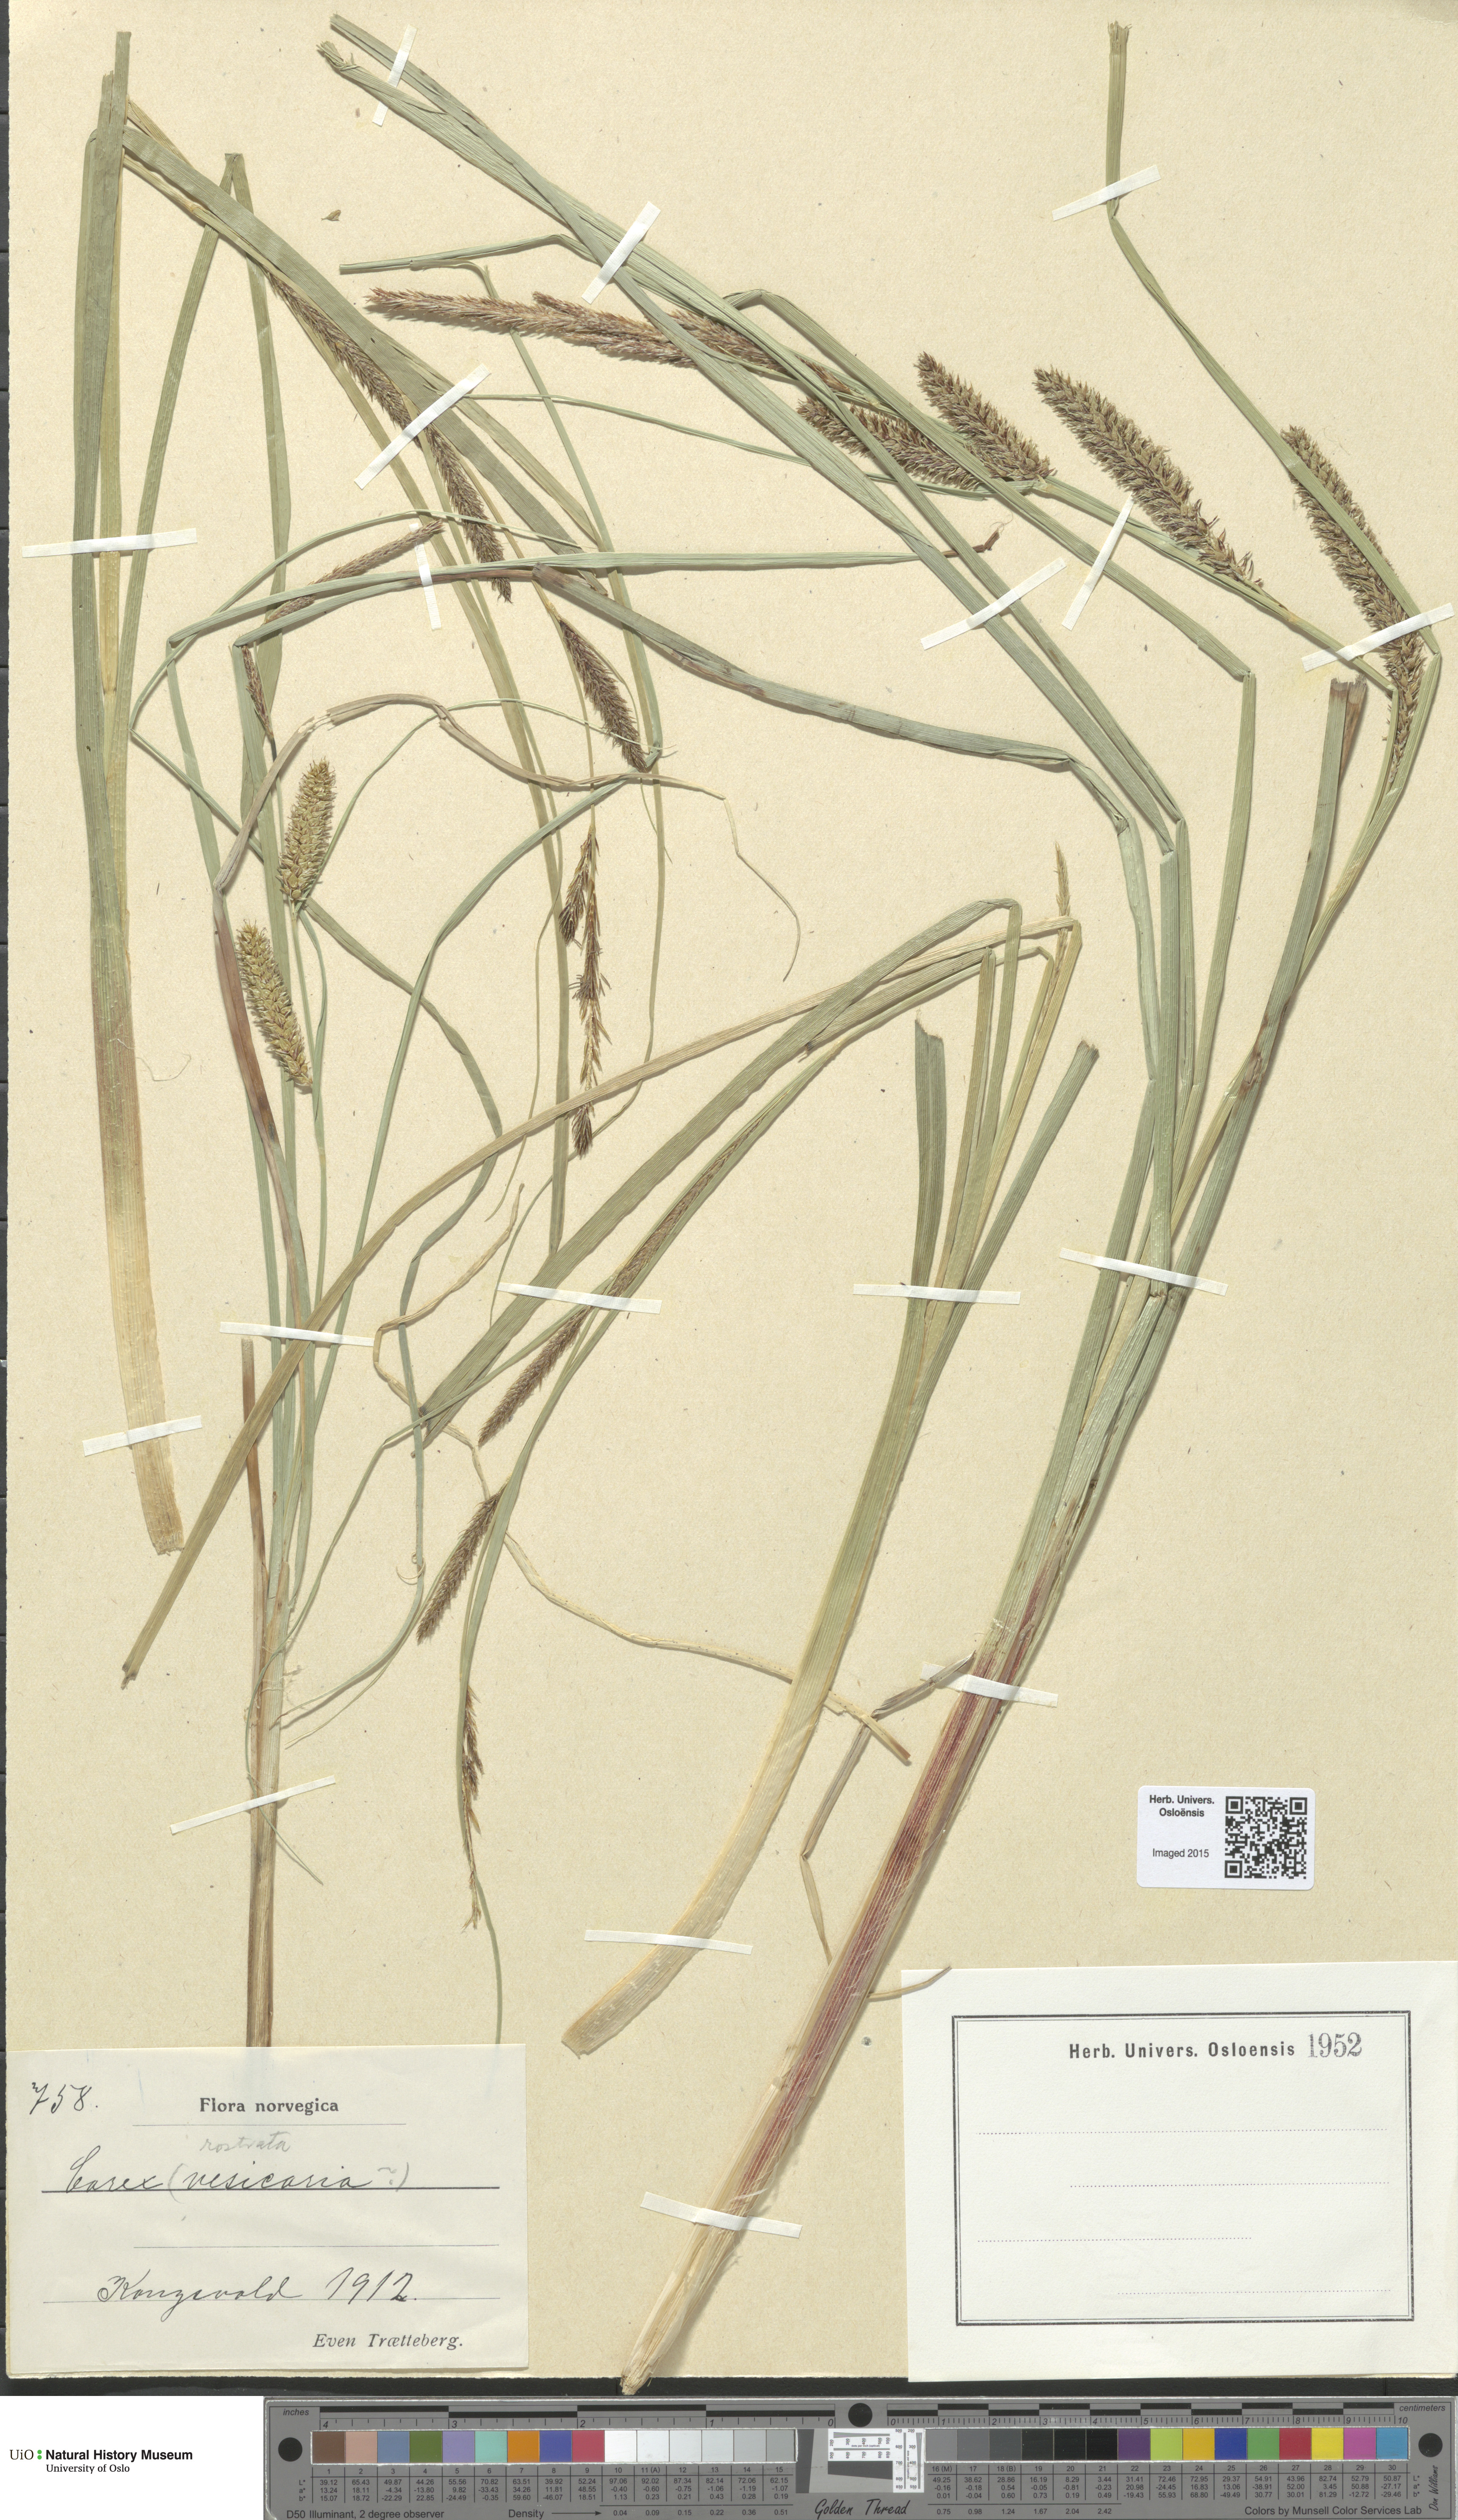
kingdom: Plantae
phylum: Tracheophyta
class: Liliopsida
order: Poales
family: Cyperaceae
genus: Carex
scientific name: Carex rostrata
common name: Bottle sedge
